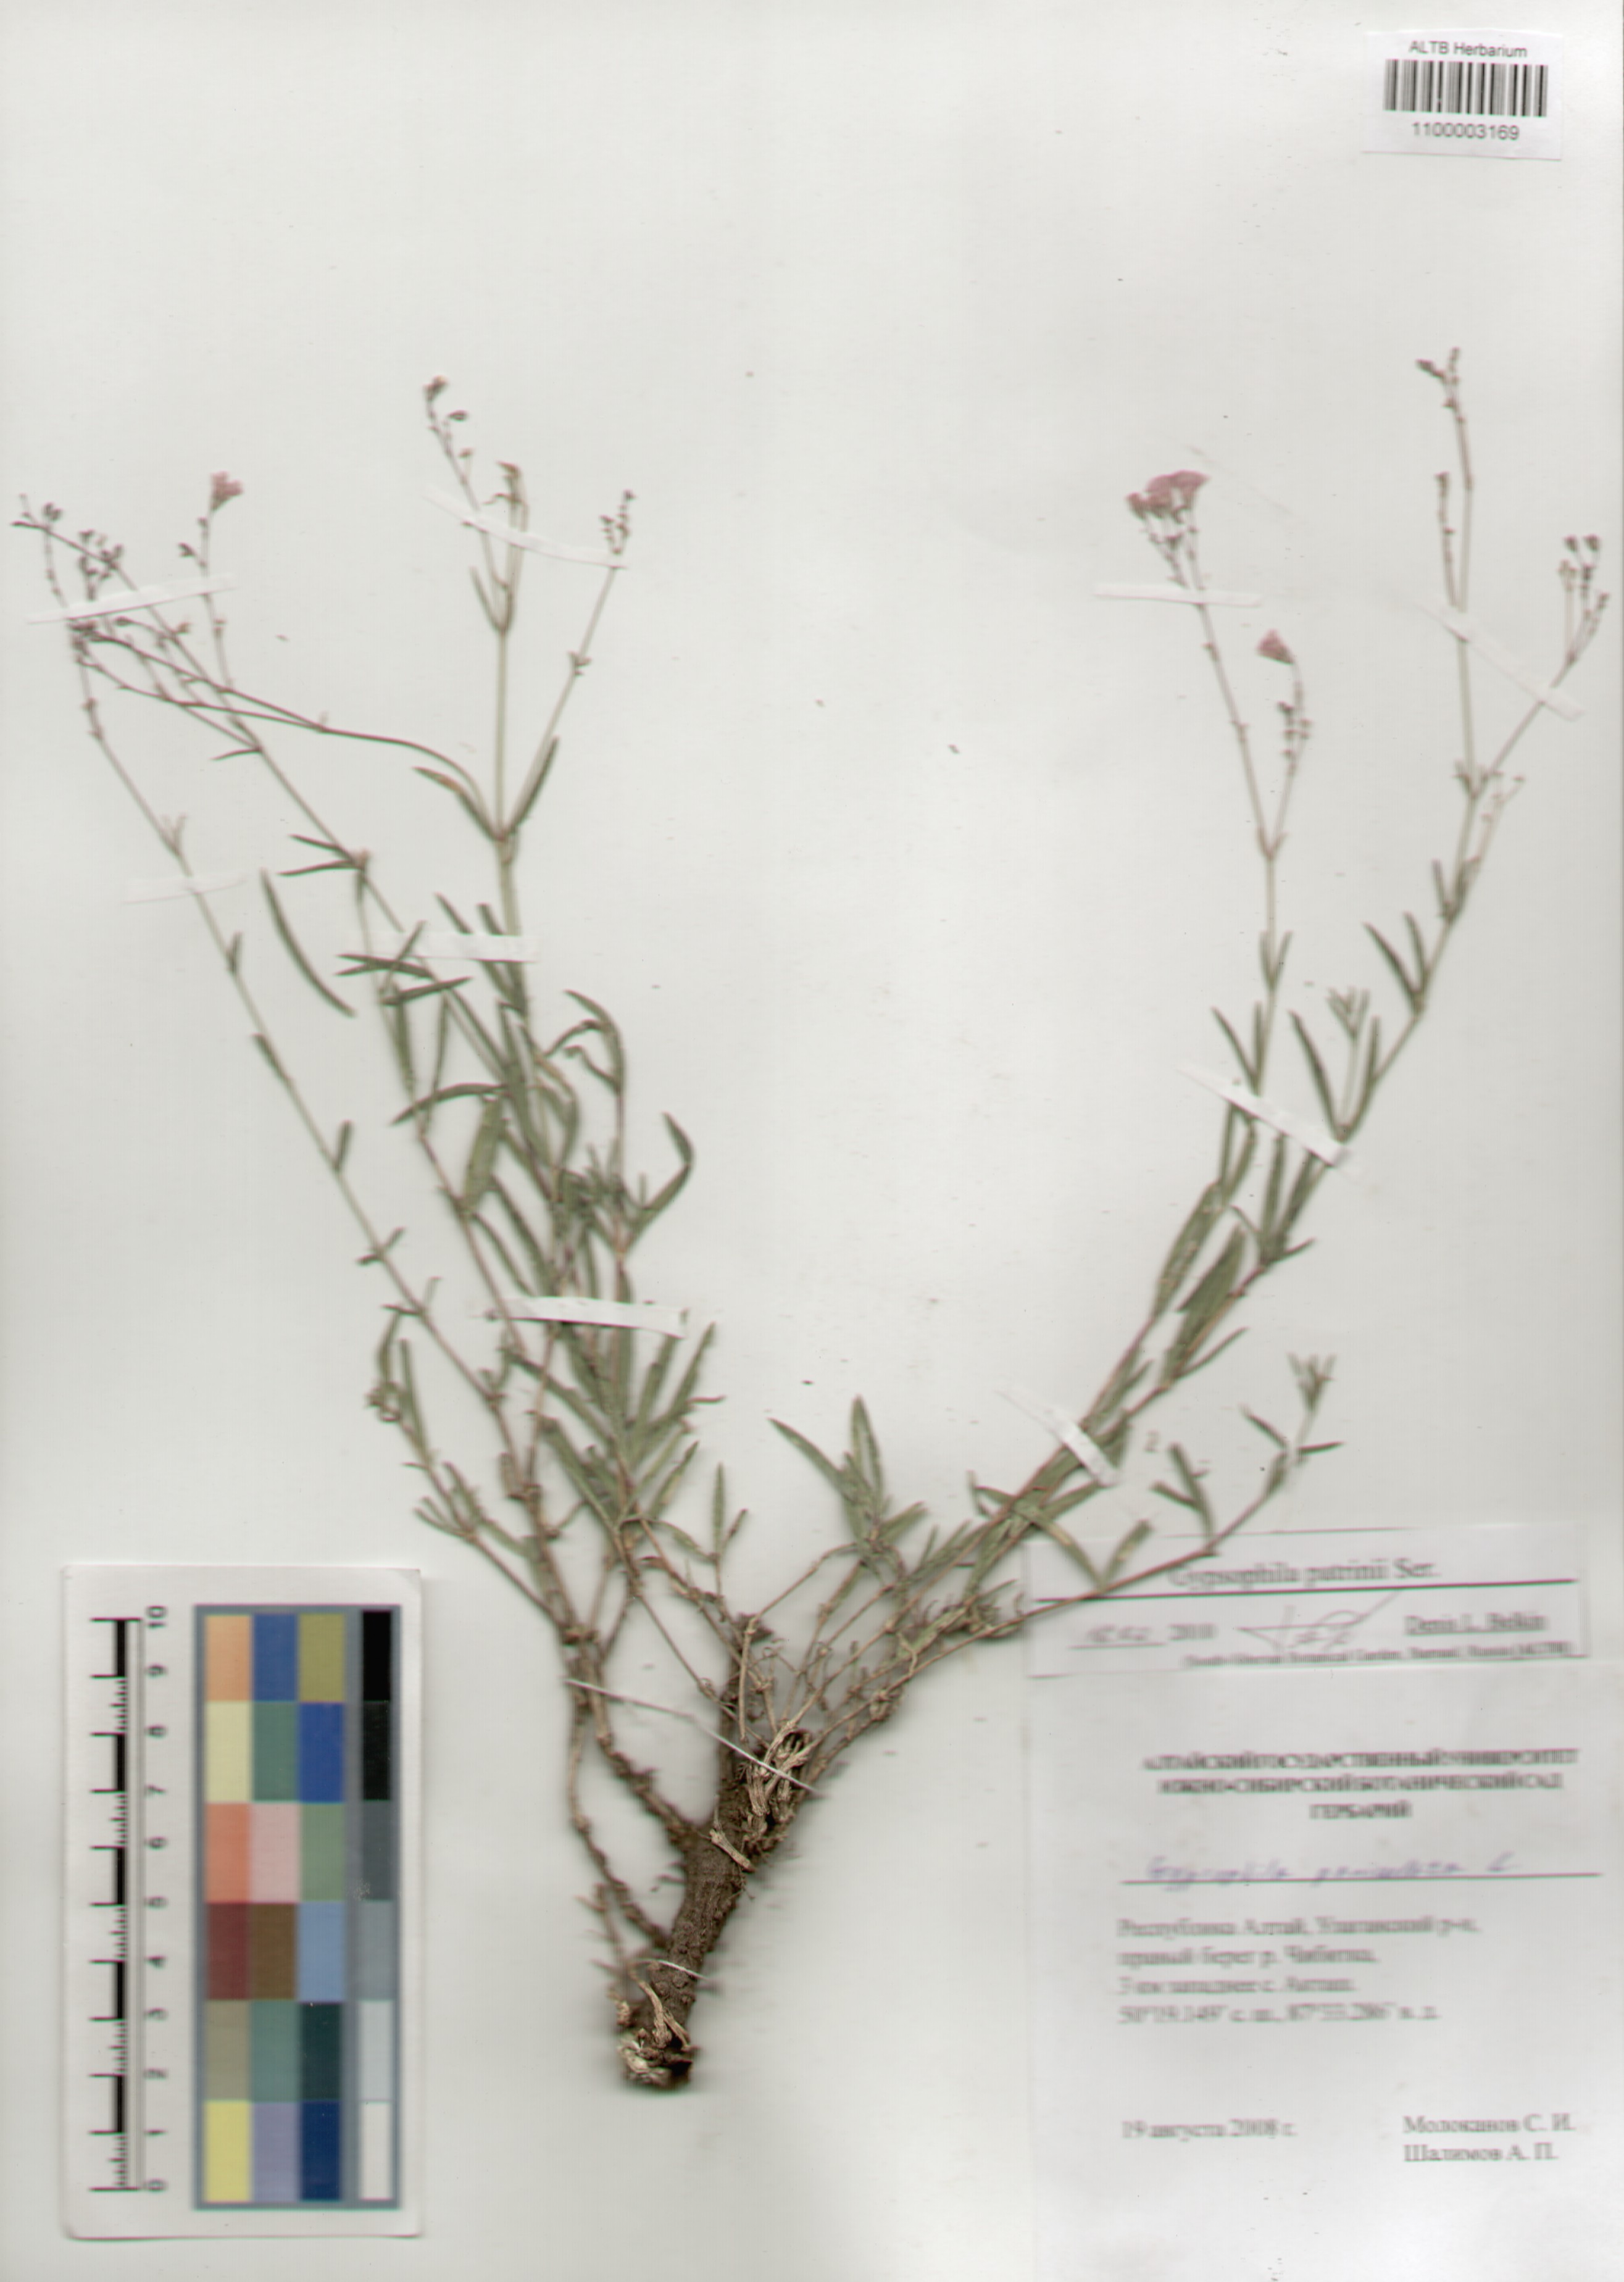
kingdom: Plantae
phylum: Tracheophyta
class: Magnoliopsida
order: Caryophyllales
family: Caryophyllaceae
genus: Gypsophila
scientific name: Gypsophila patrinii
